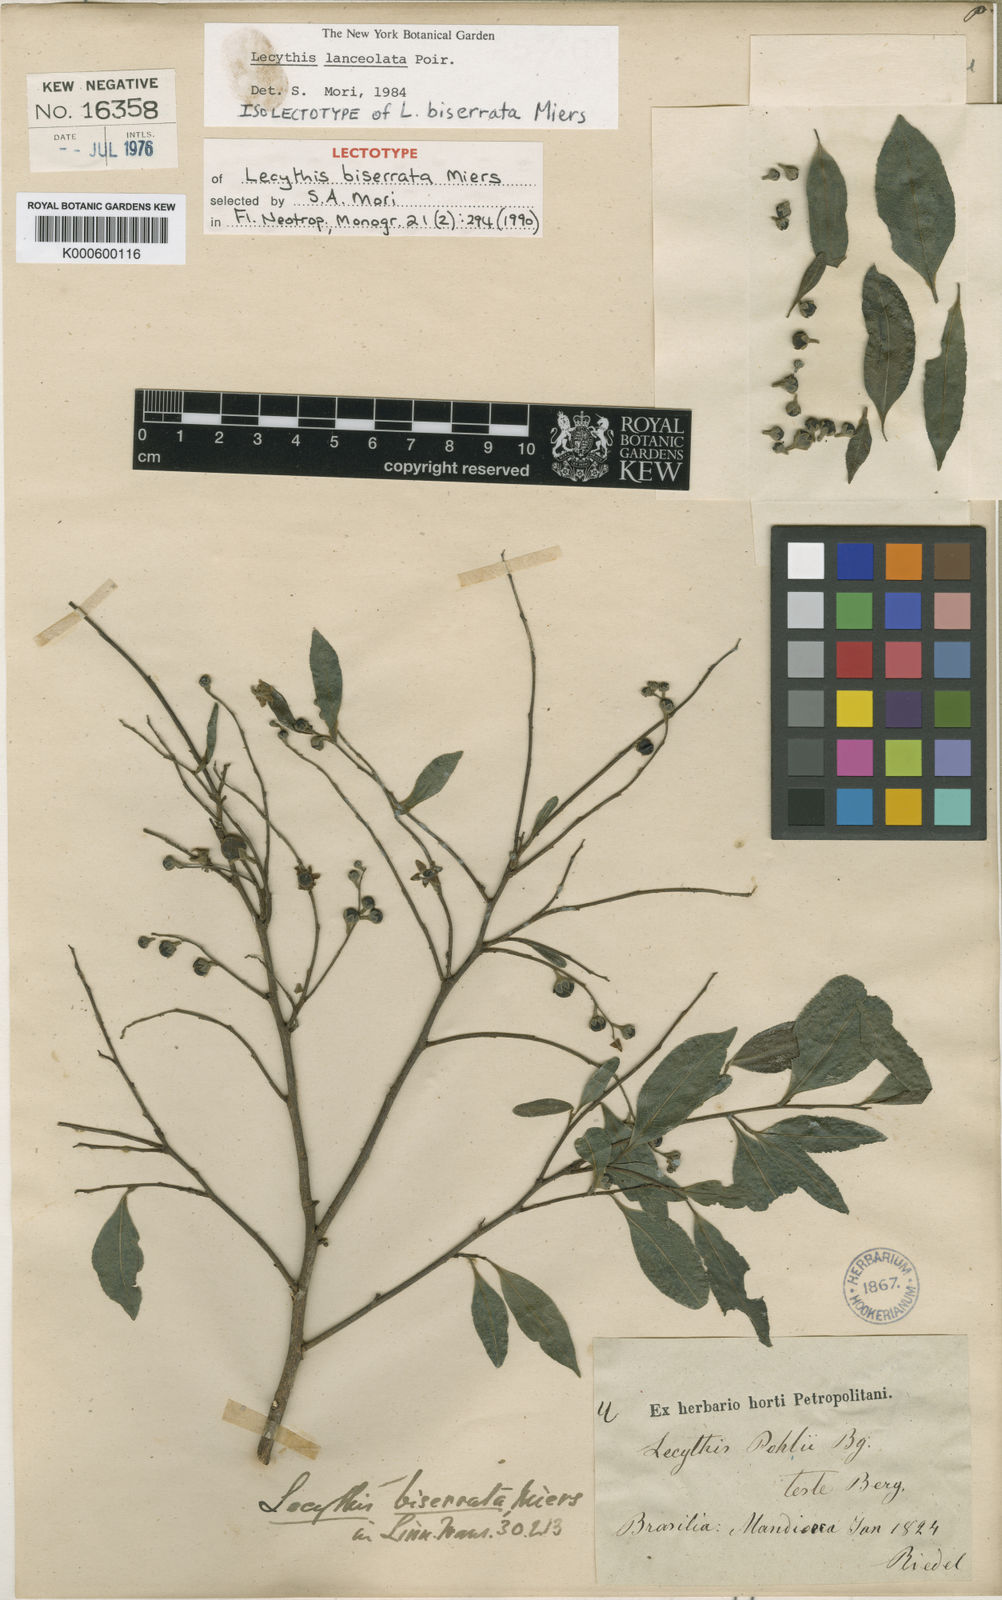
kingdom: Plantae
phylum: Tracheophyta
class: Magnoliopsida
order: Ericales
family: Lecythidaceae
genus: Lecythis
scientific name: Lecythis lanceolata
